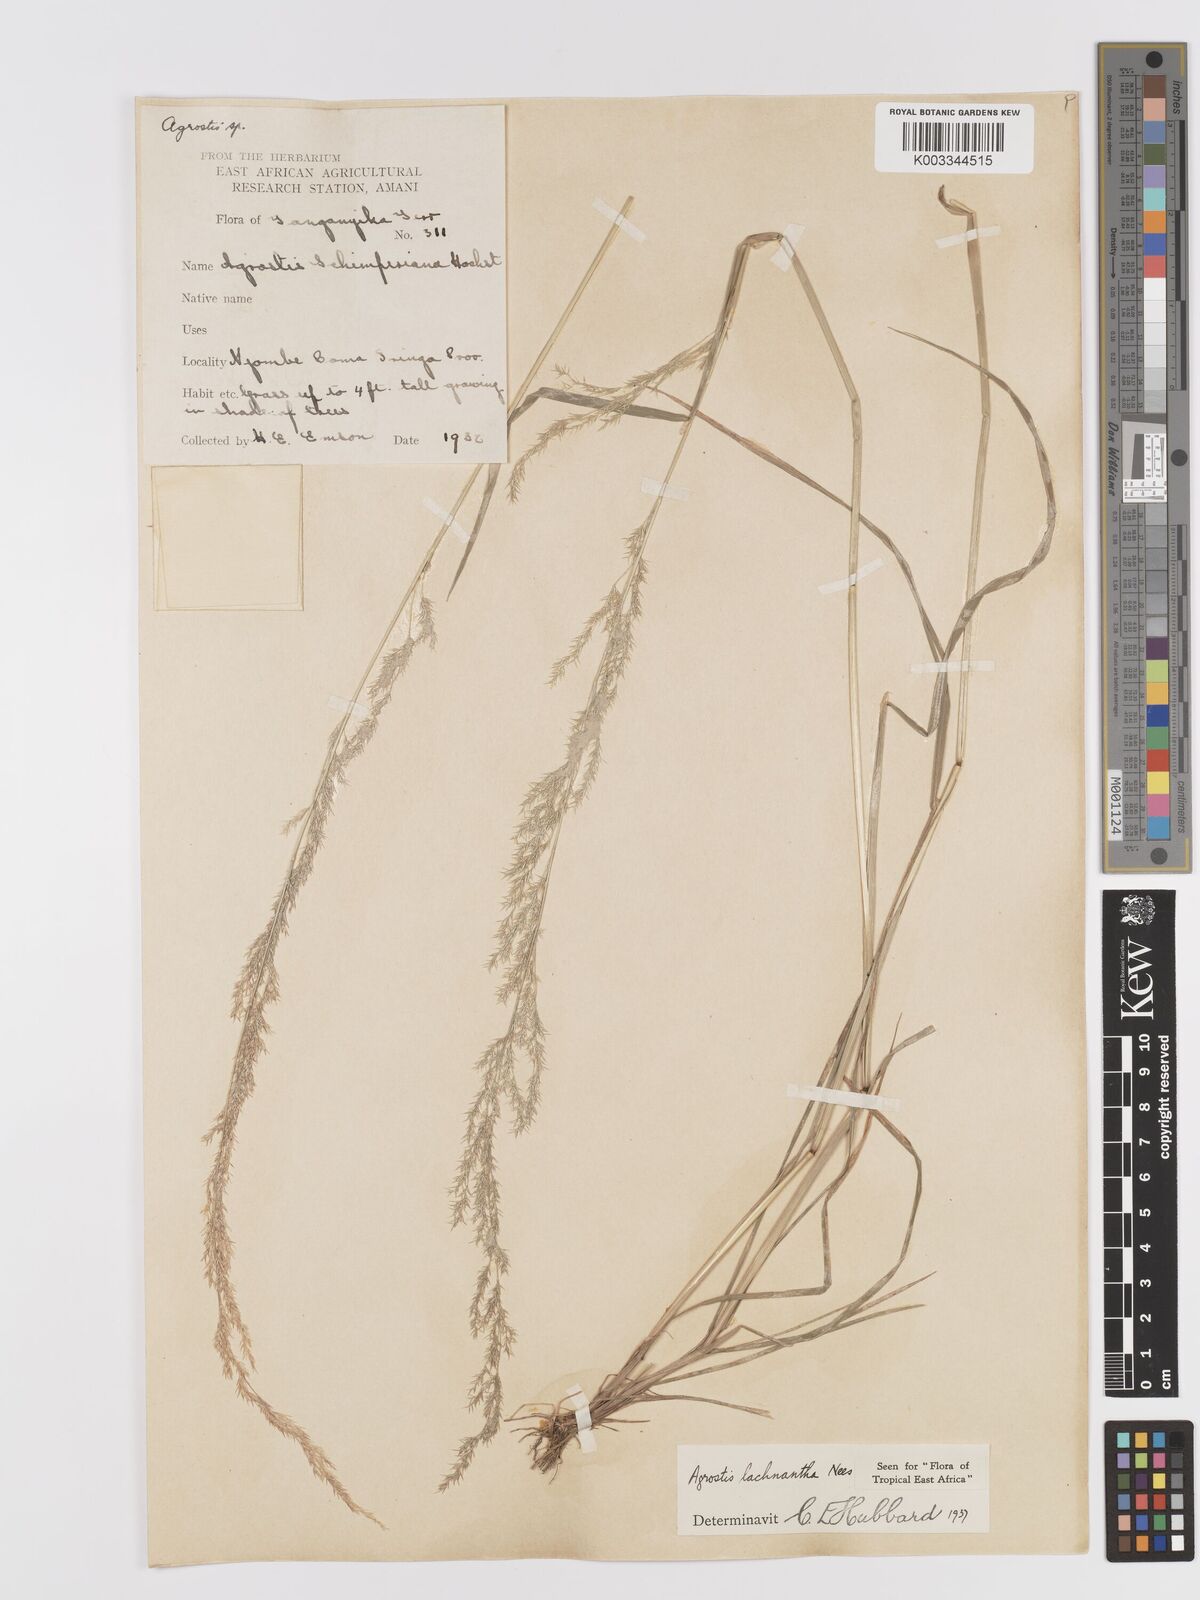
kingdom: Plantae
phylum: Tracheophyta
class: Liliopsida
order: Poales
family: Poaceae
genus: Lachnagrostis
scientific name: Lachnagrostis lachnantha
